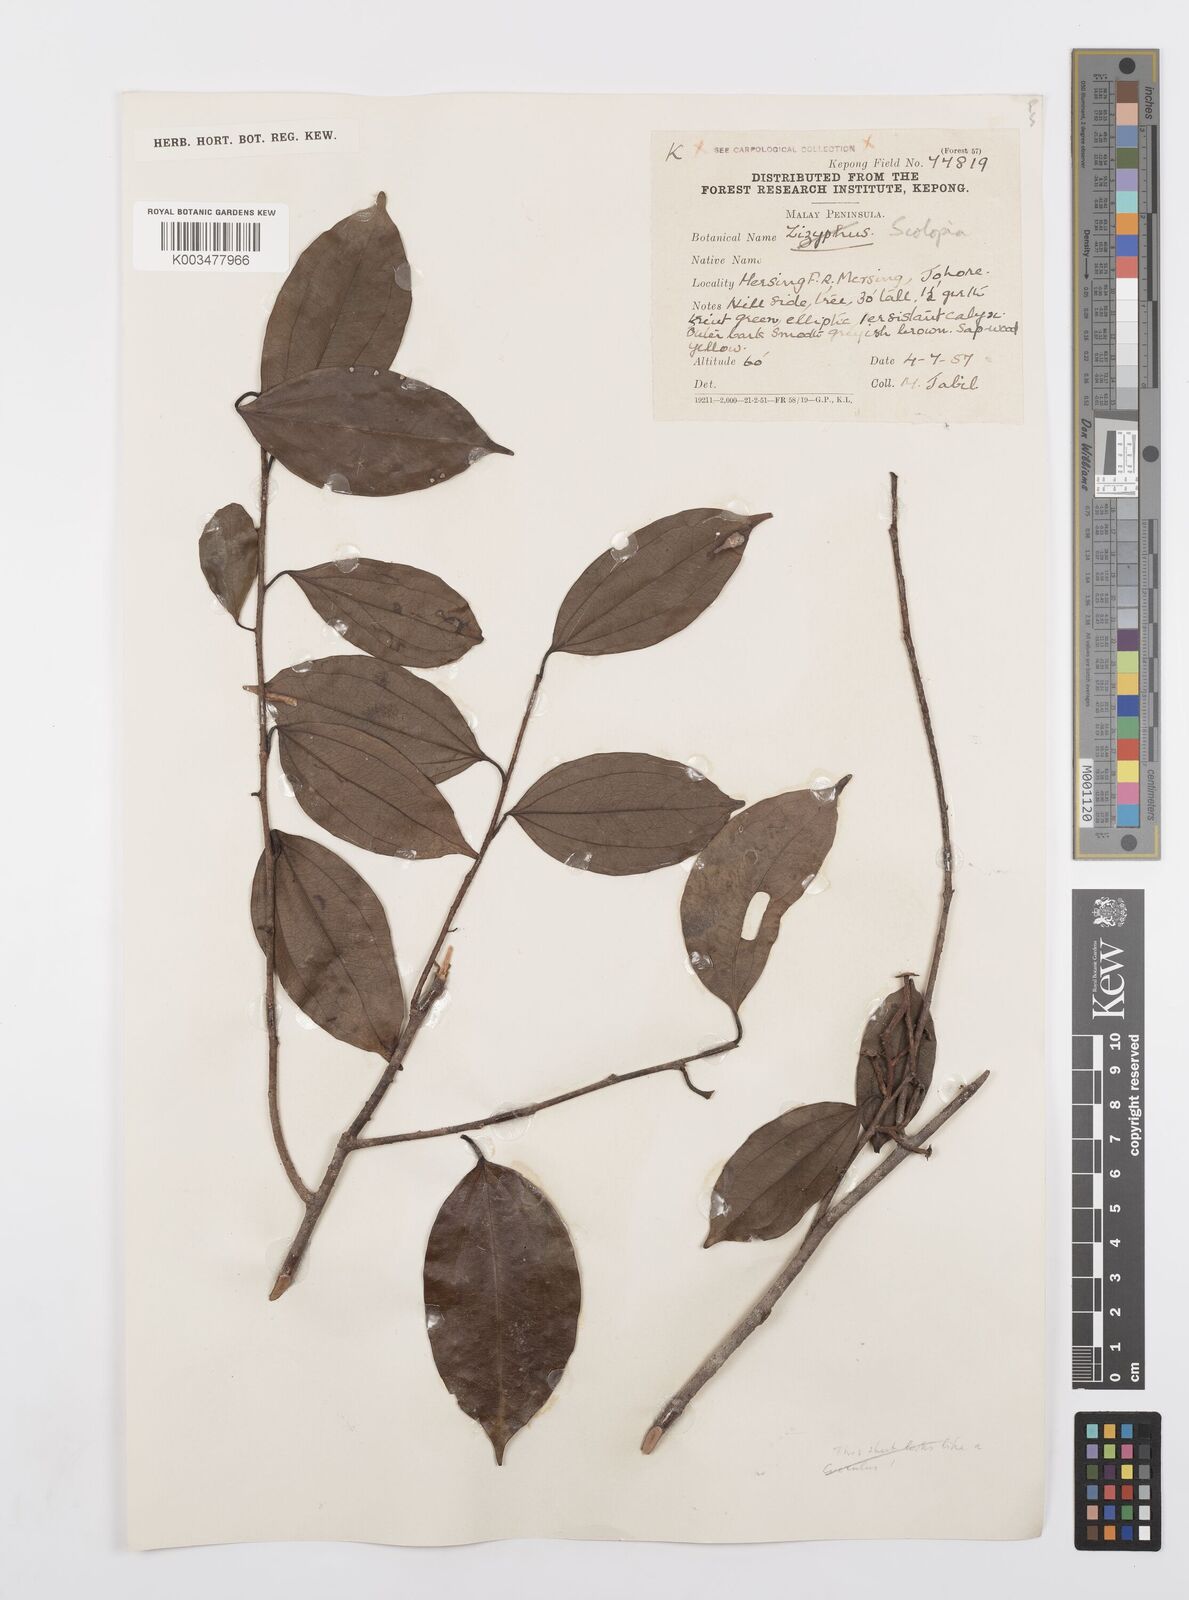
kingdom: Plantae
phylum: Tracheophyta
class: Magnoliopsida
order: Malpighiales
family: Salicaceae
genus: Scolopia
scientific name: Scolopia
